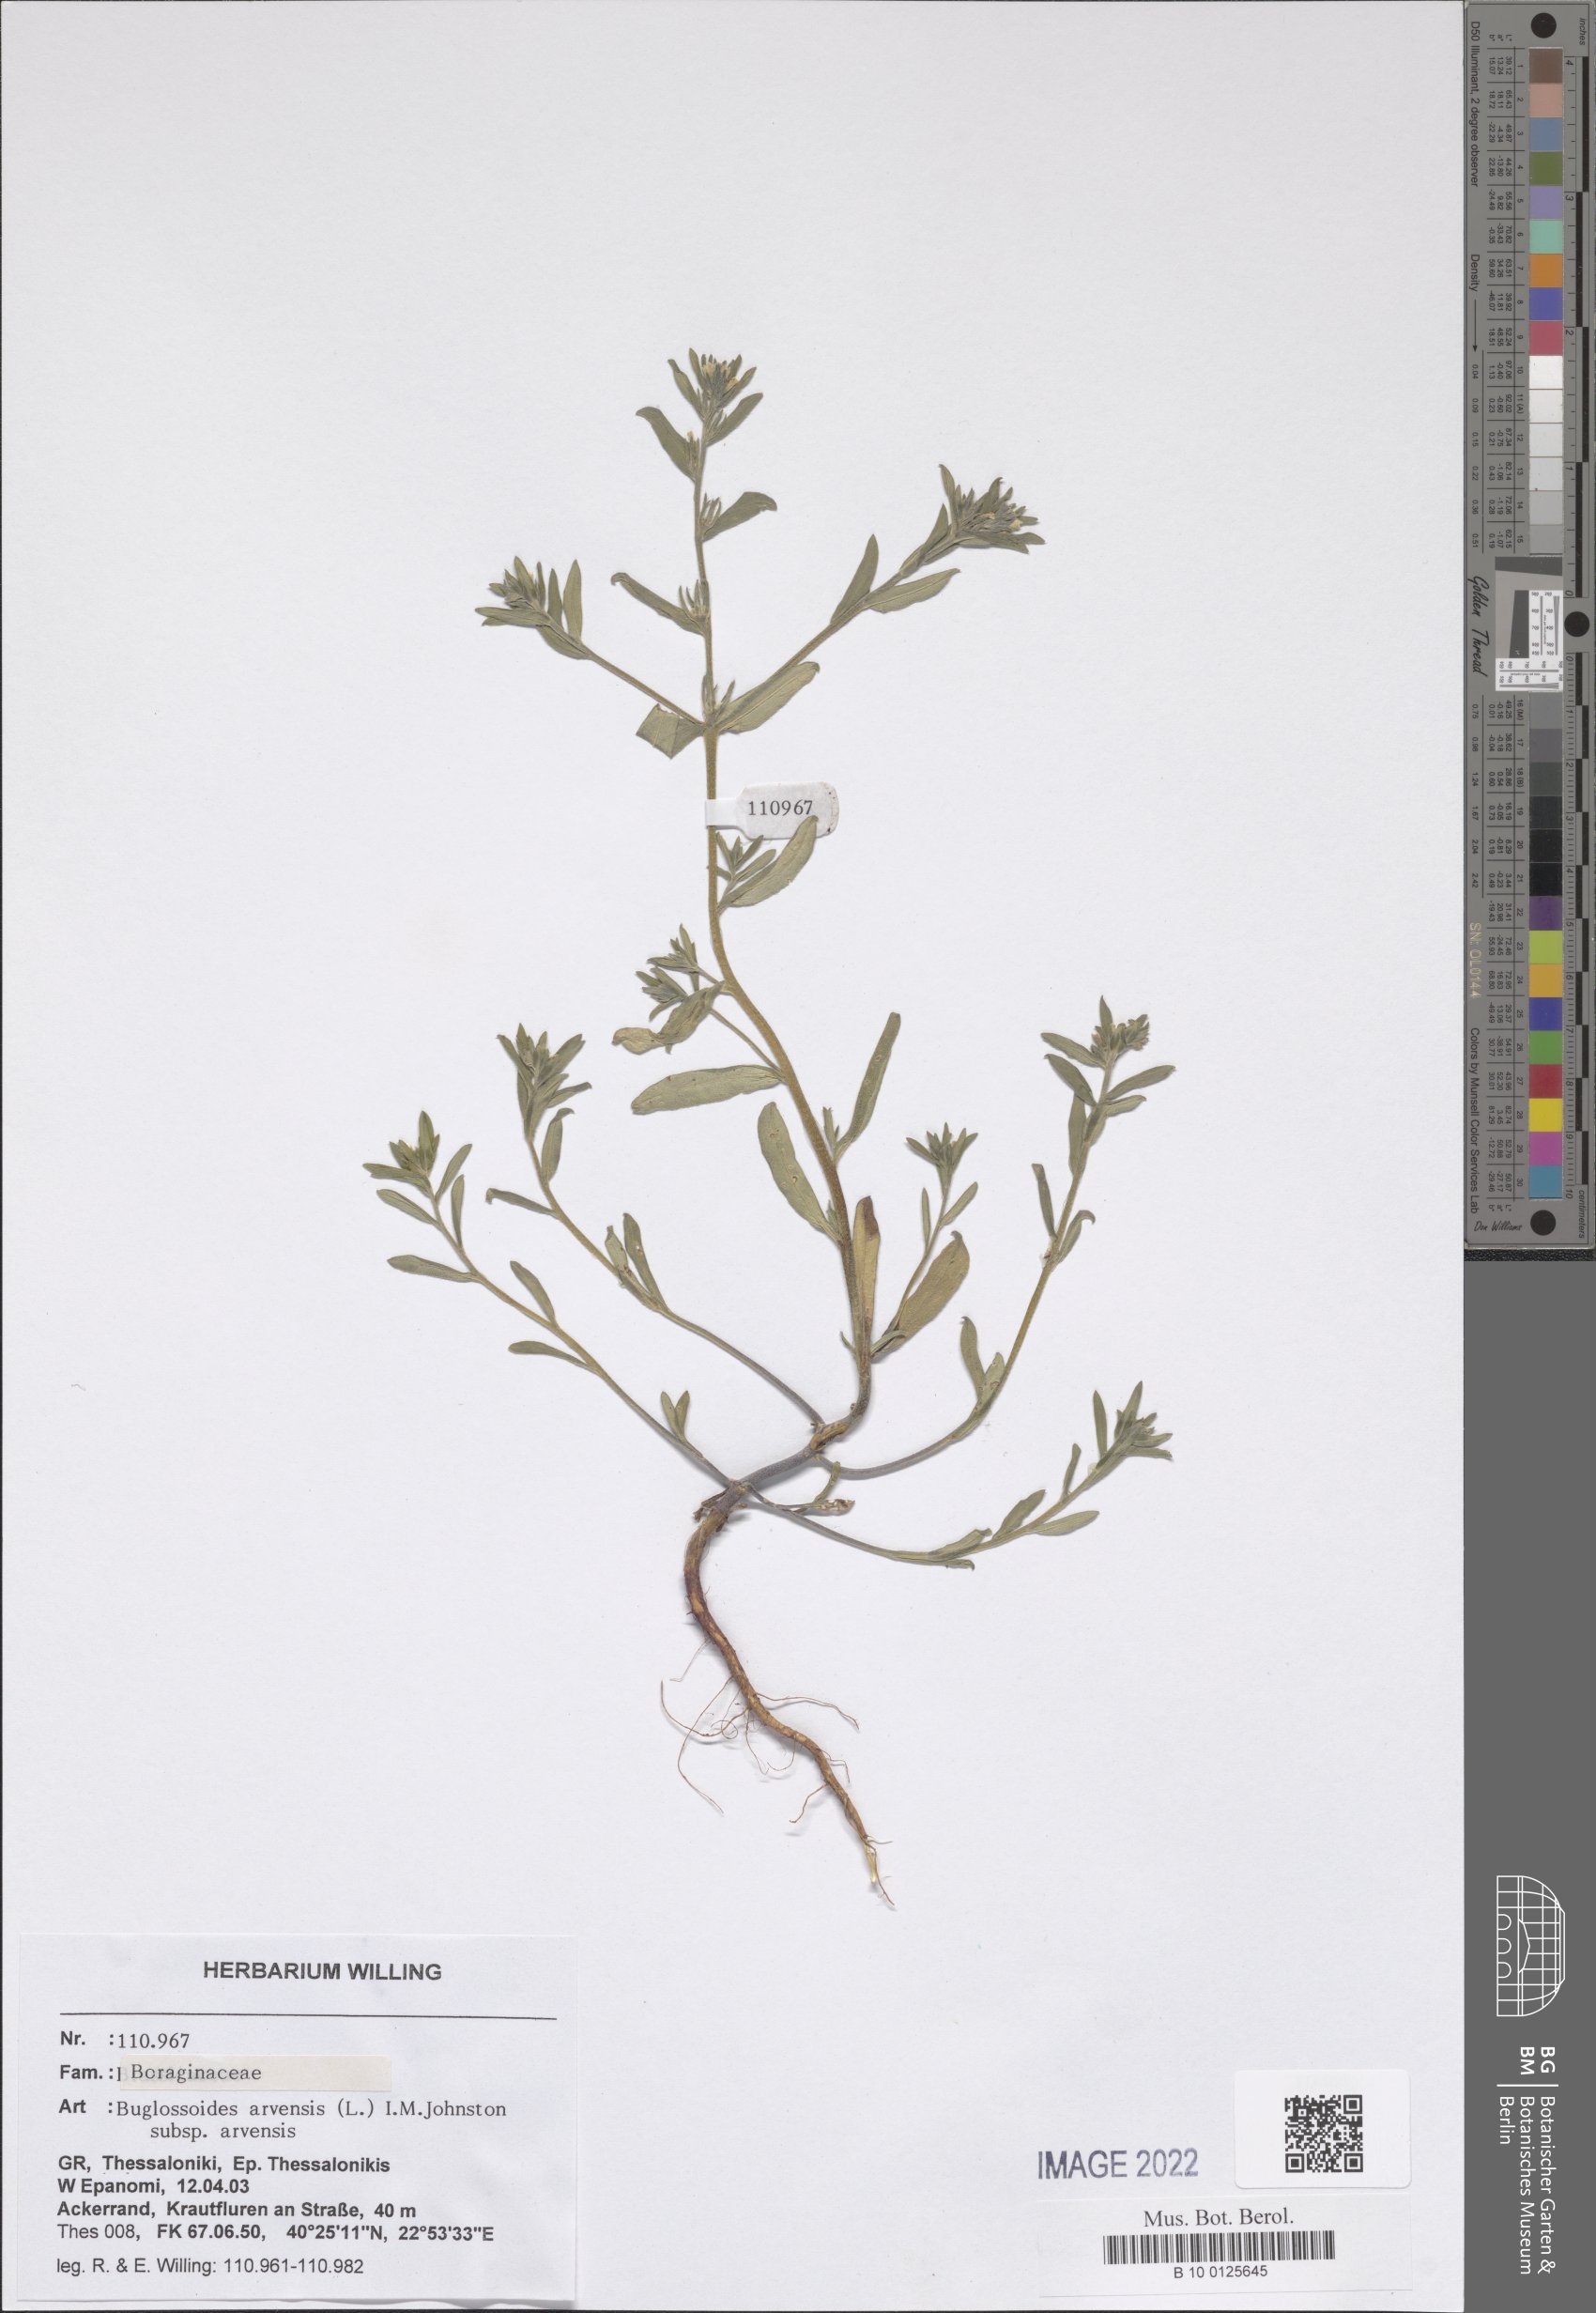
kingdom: Plantae
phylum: Tracheophyta
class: Magnoliopsida
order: Boraginales
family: Boraginaceae
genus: Buglossoides
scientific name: Buglossoides arvensis
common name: Corn gromwell
